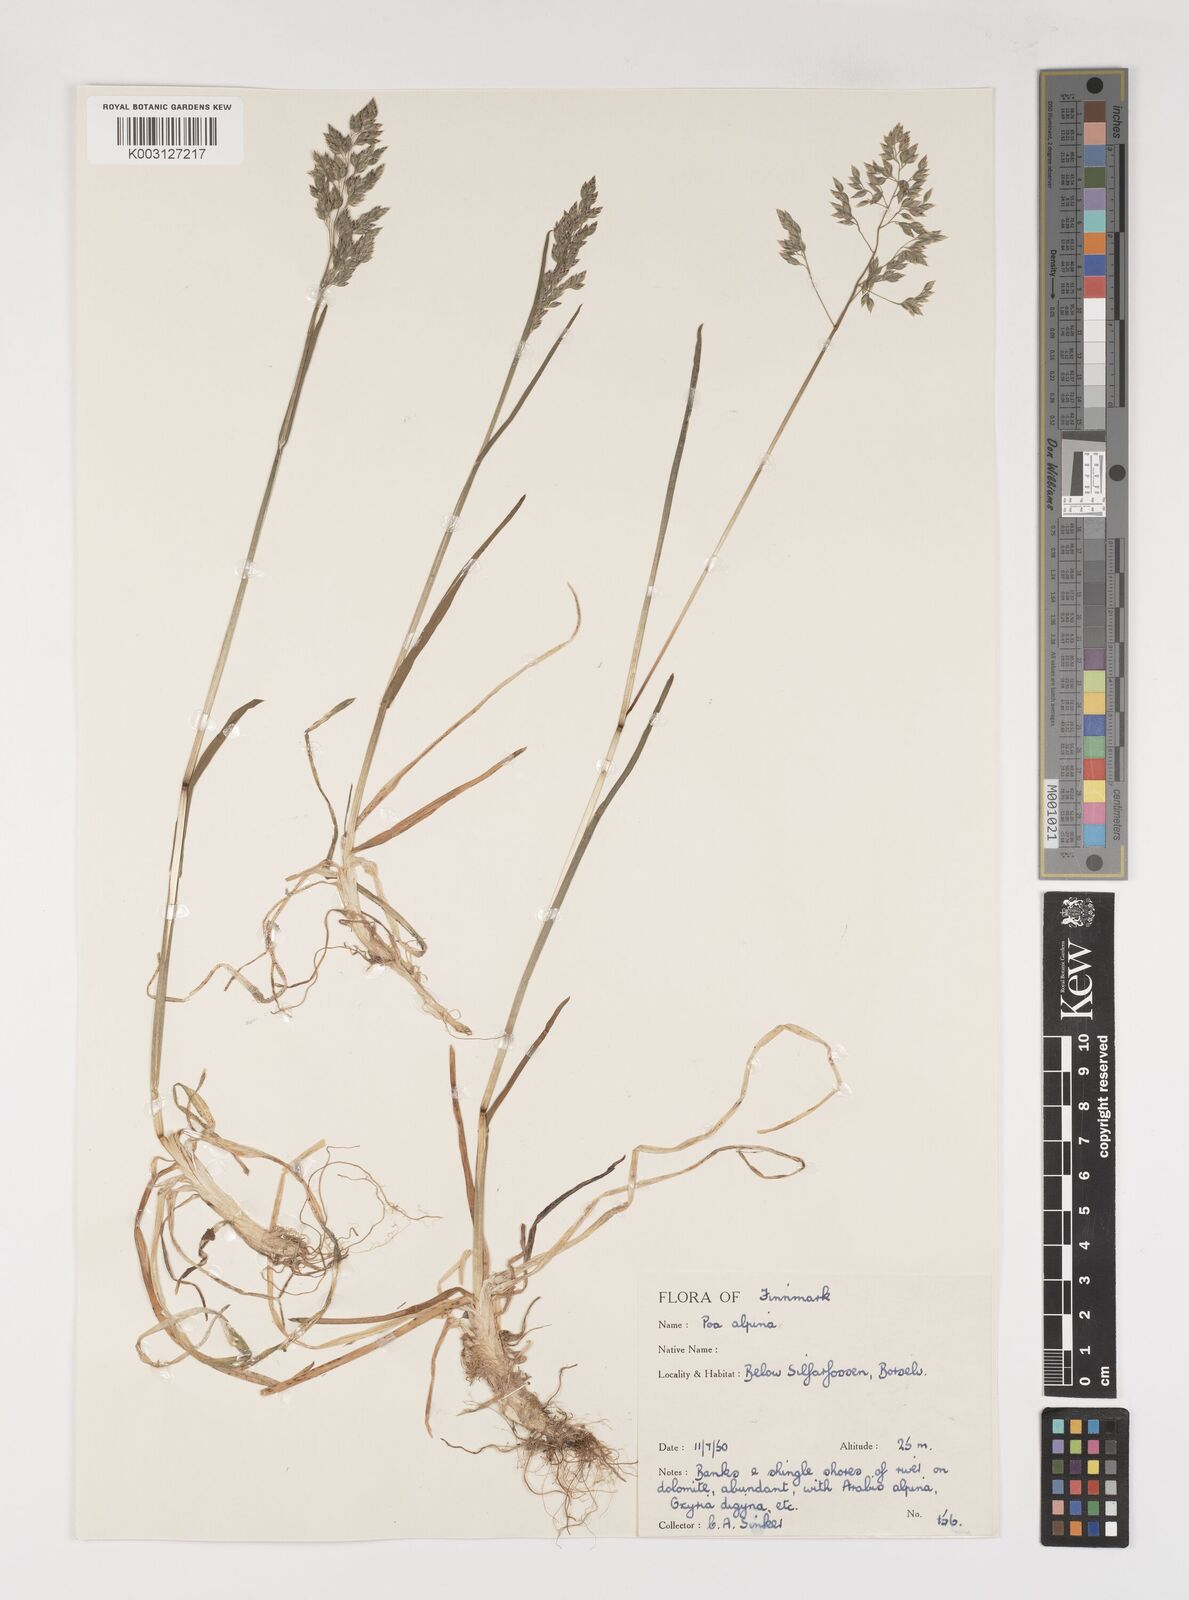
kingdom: Plantae
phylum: Tracheophyta
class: Liliopsida
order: Poales
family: Poaceae
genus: Poa
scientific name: Poa alpina
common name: Alpine bluegrass
